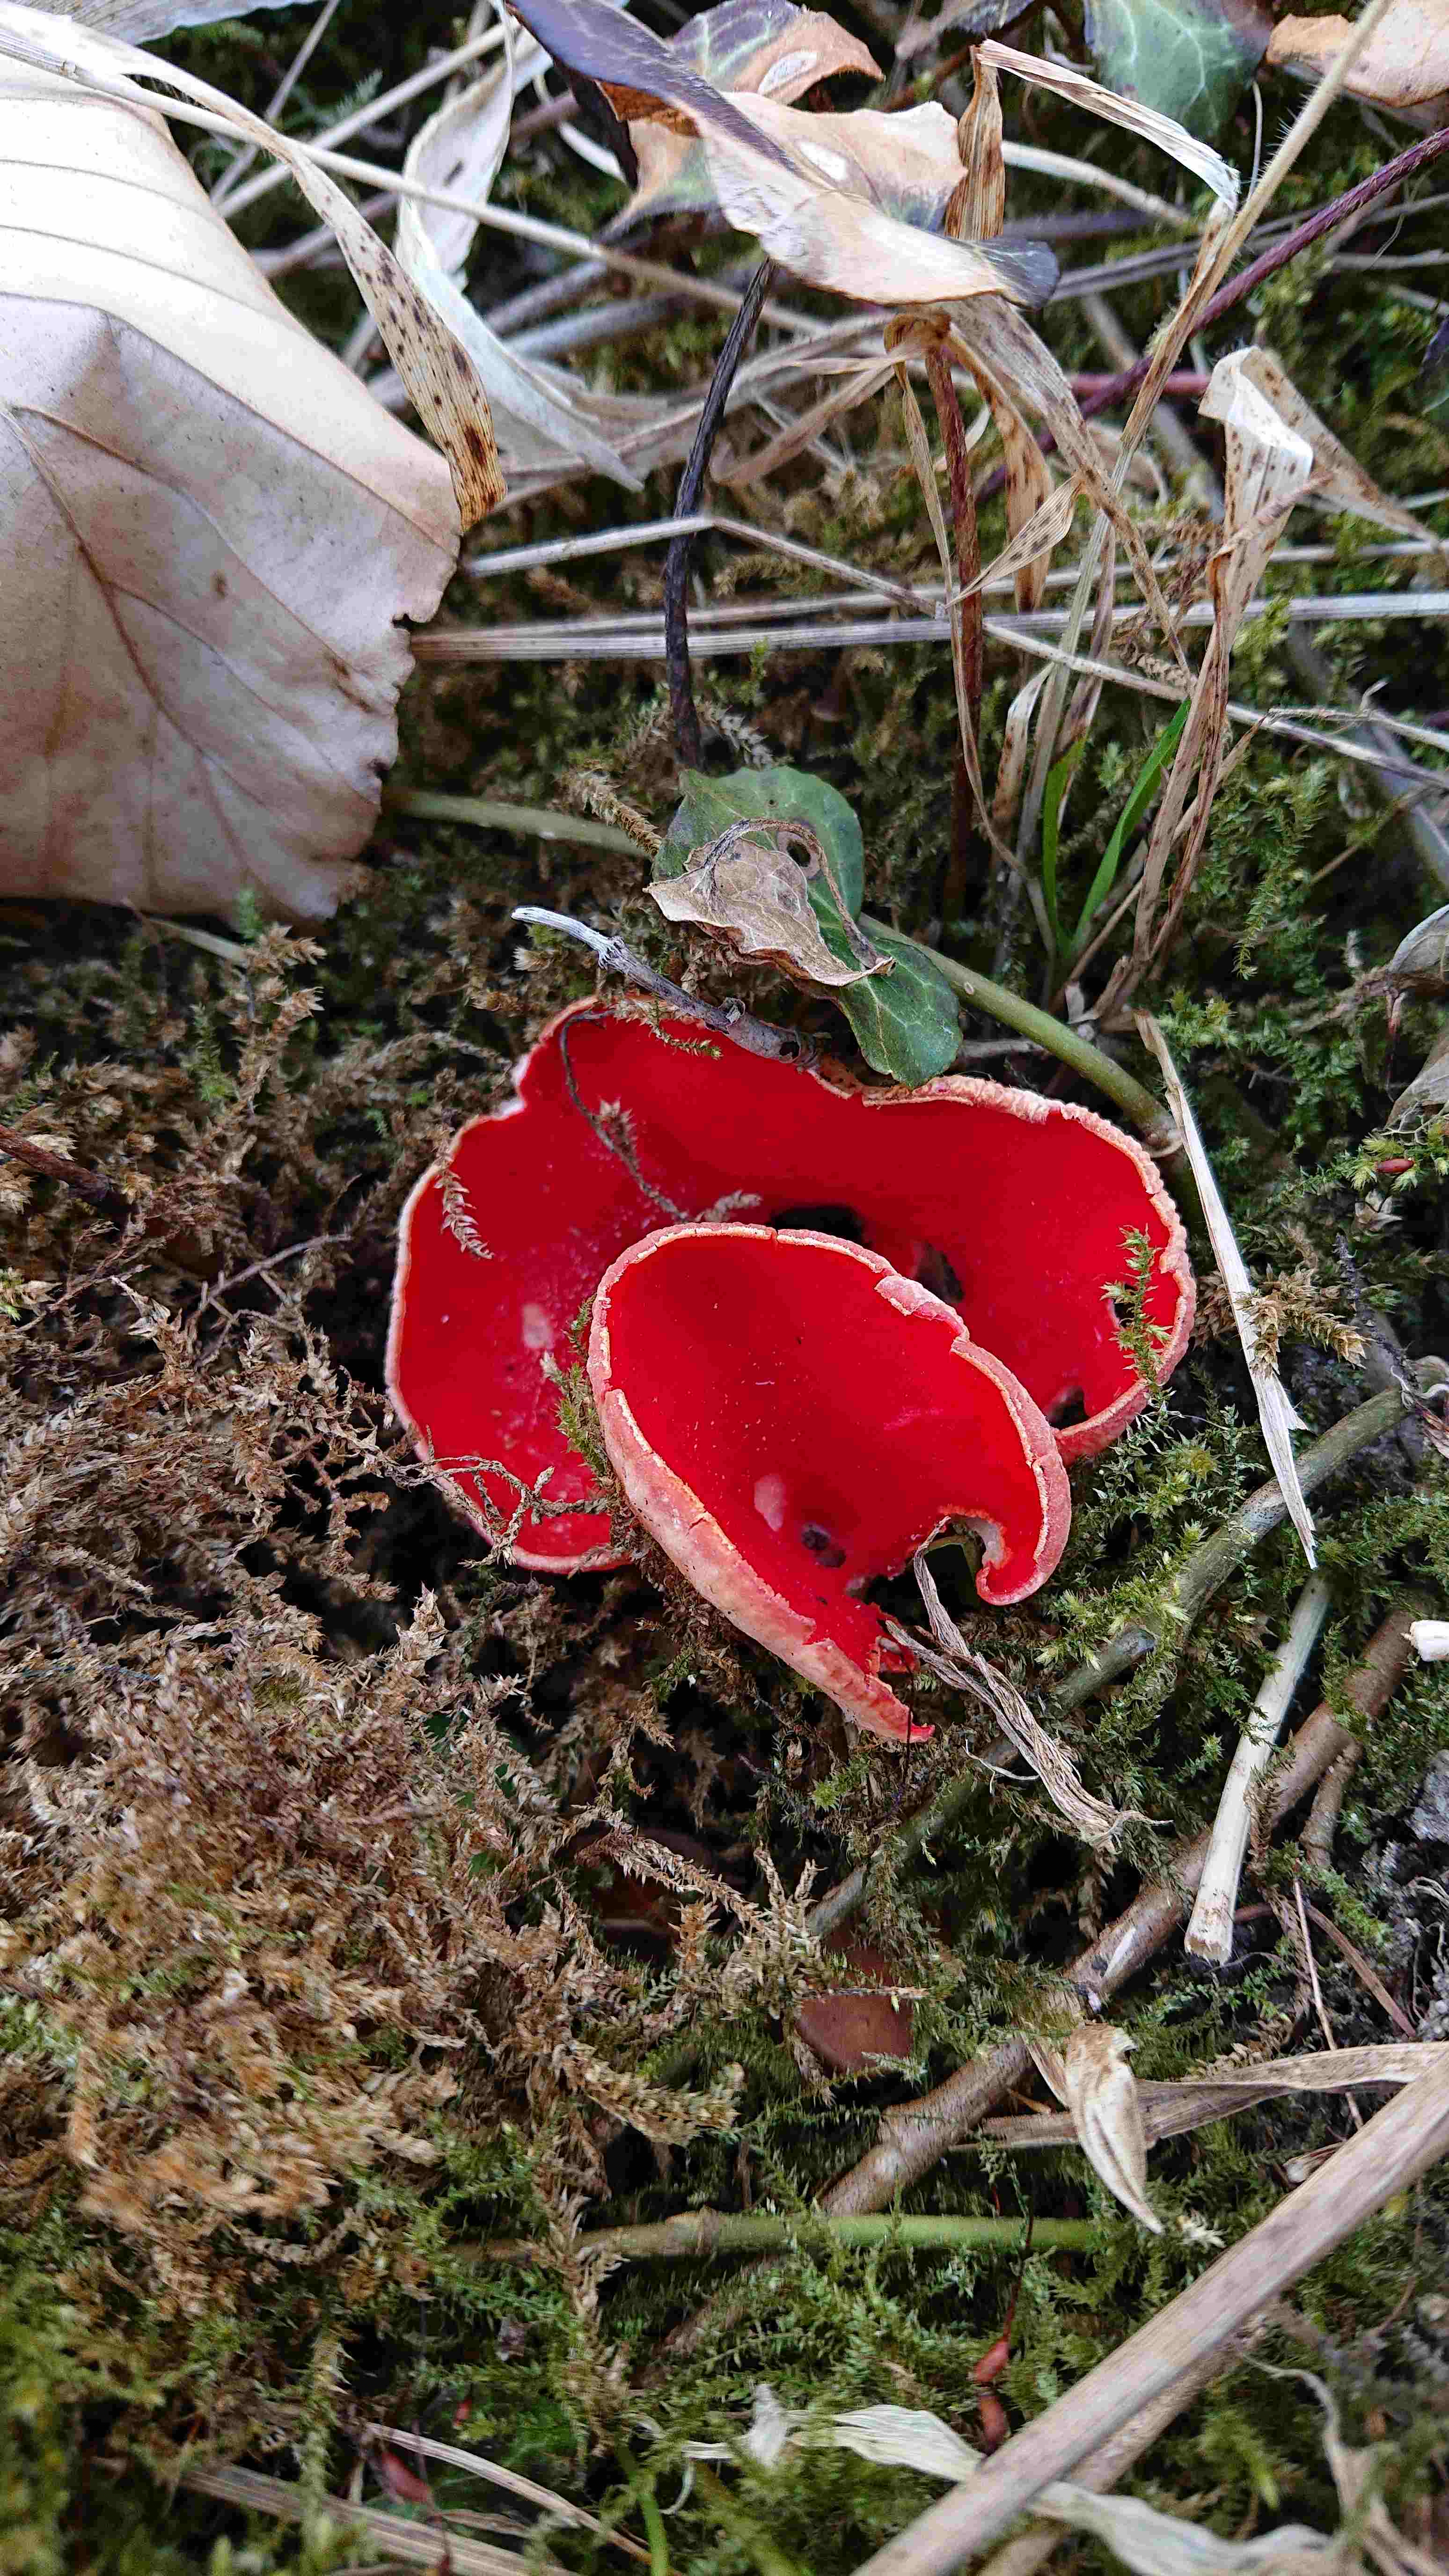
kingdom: Fungi
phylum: Ascomycota
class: Pezizomycetes
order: Pezizales
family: Sarcoscyphaceae
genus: Sarcoscypha
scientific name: Sarcoscypha austriaca
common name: krølhåret pragtbæger
